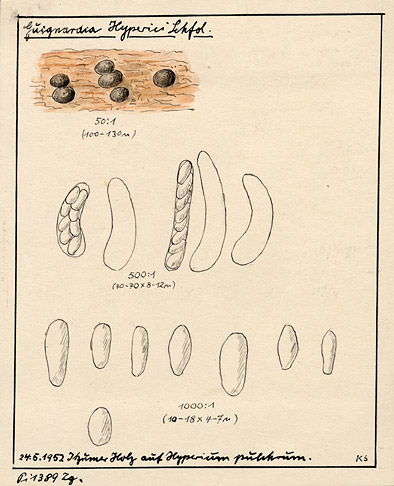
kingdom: Plantae
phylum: Tracheophyta
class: Magnoliopsida
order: Malpighiales
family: Hypericaceae
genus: Hypericum
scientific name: Hypericum pulchrum
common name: Slender st. john's-wort
